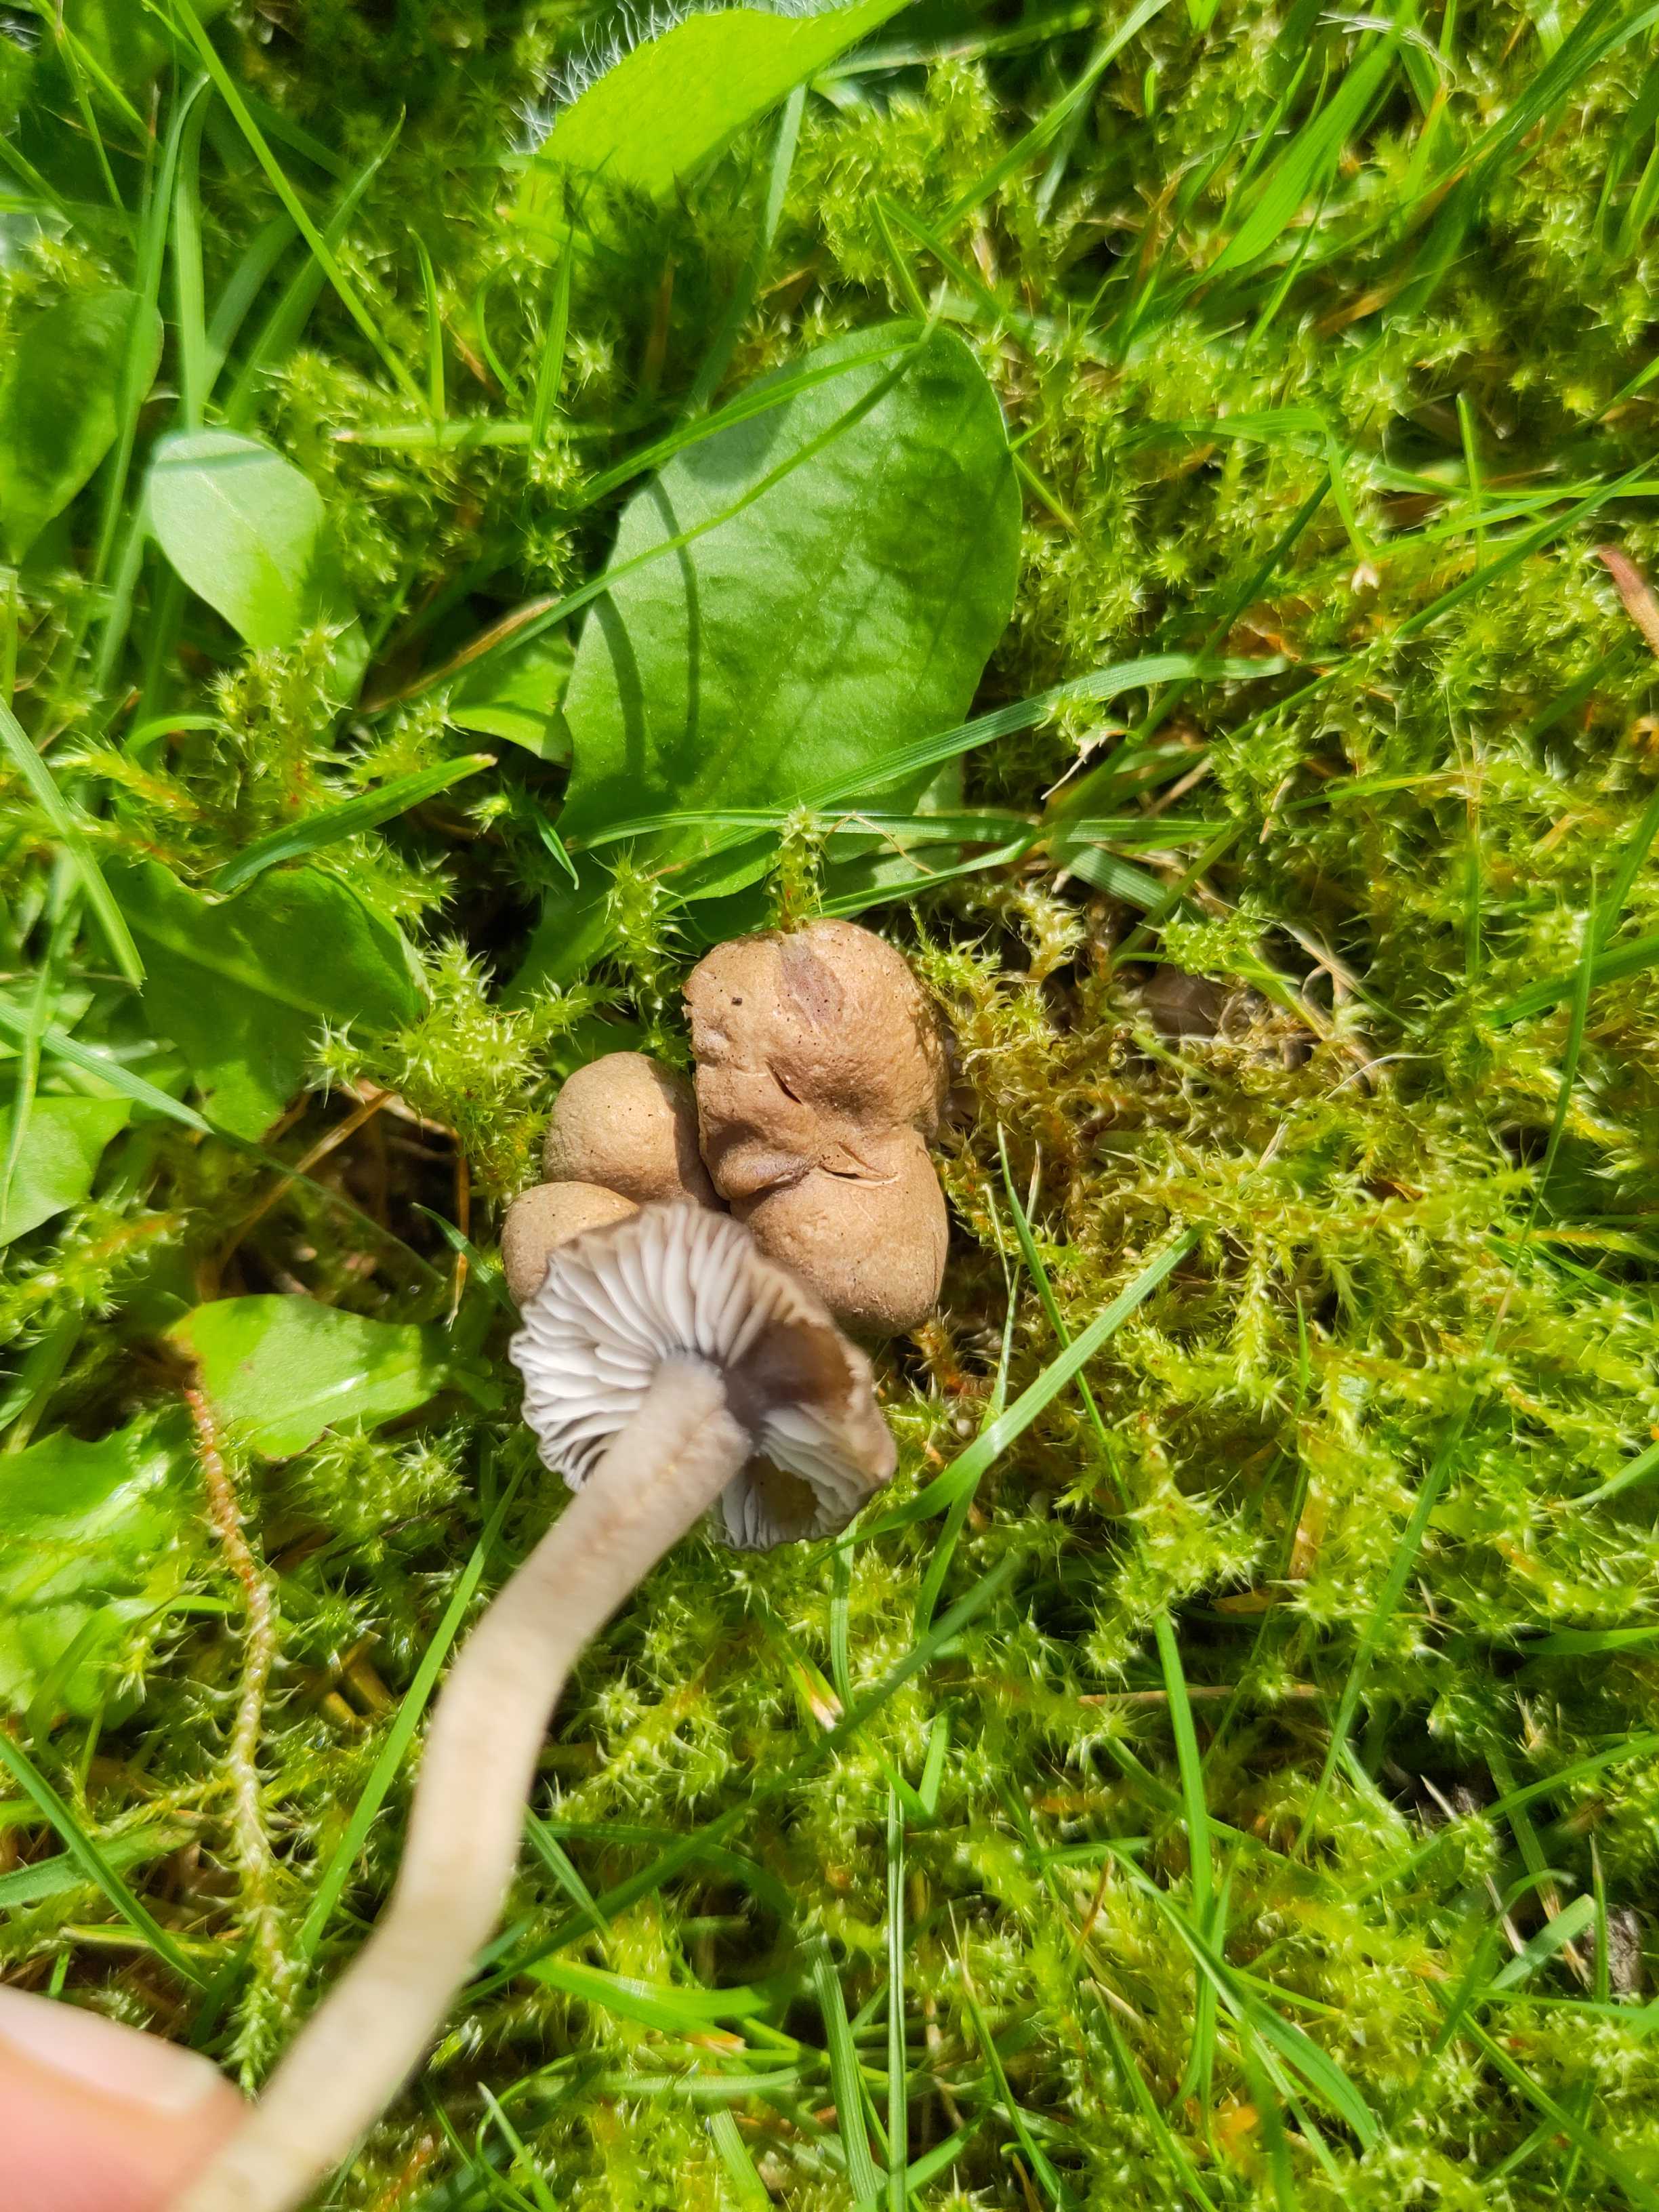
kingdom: Fungi
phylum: Basidiomycota
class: Agaricomycetes
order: Agaricales
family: Clavariaceae
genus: Camarophyllopsis
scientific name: Camarophyllopsis schulzeri
